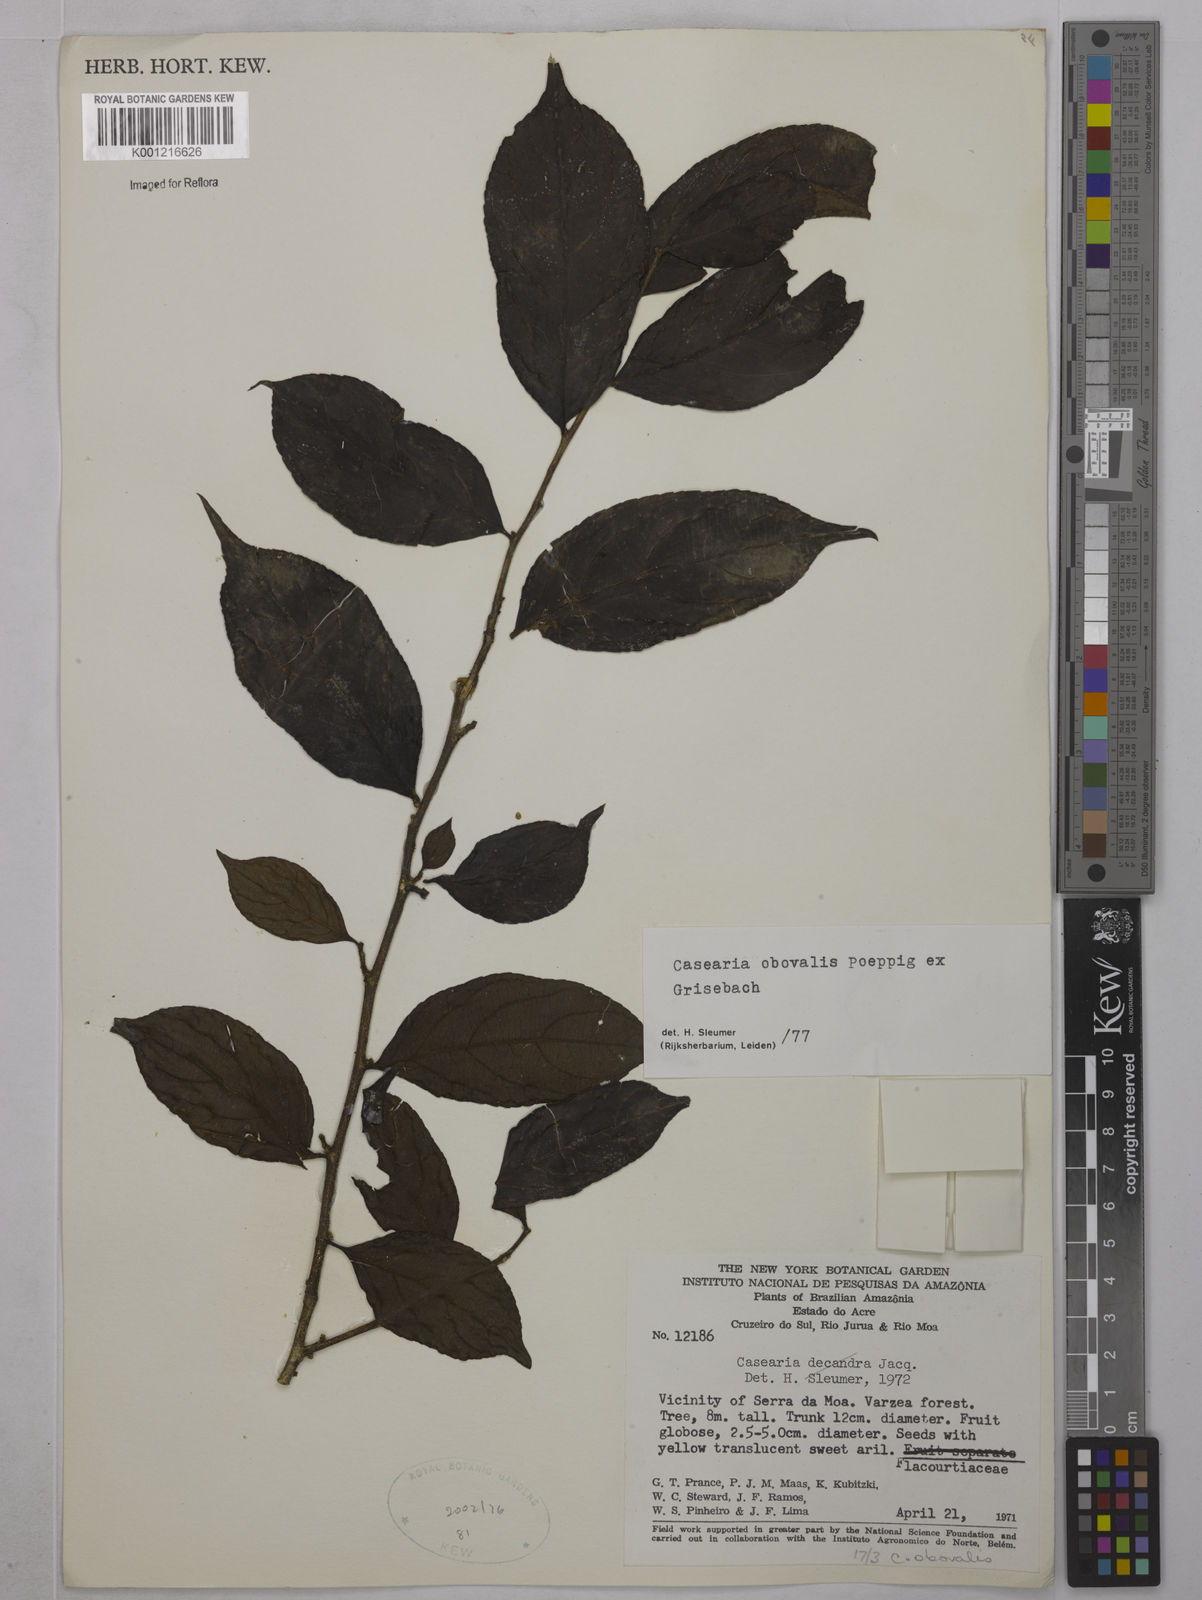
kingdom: Plantae
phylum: Tracheophyta
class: Magnoliopsida
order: Malpighiales
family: Salicaceae
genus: Casearia
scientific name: Casearia obovalis
